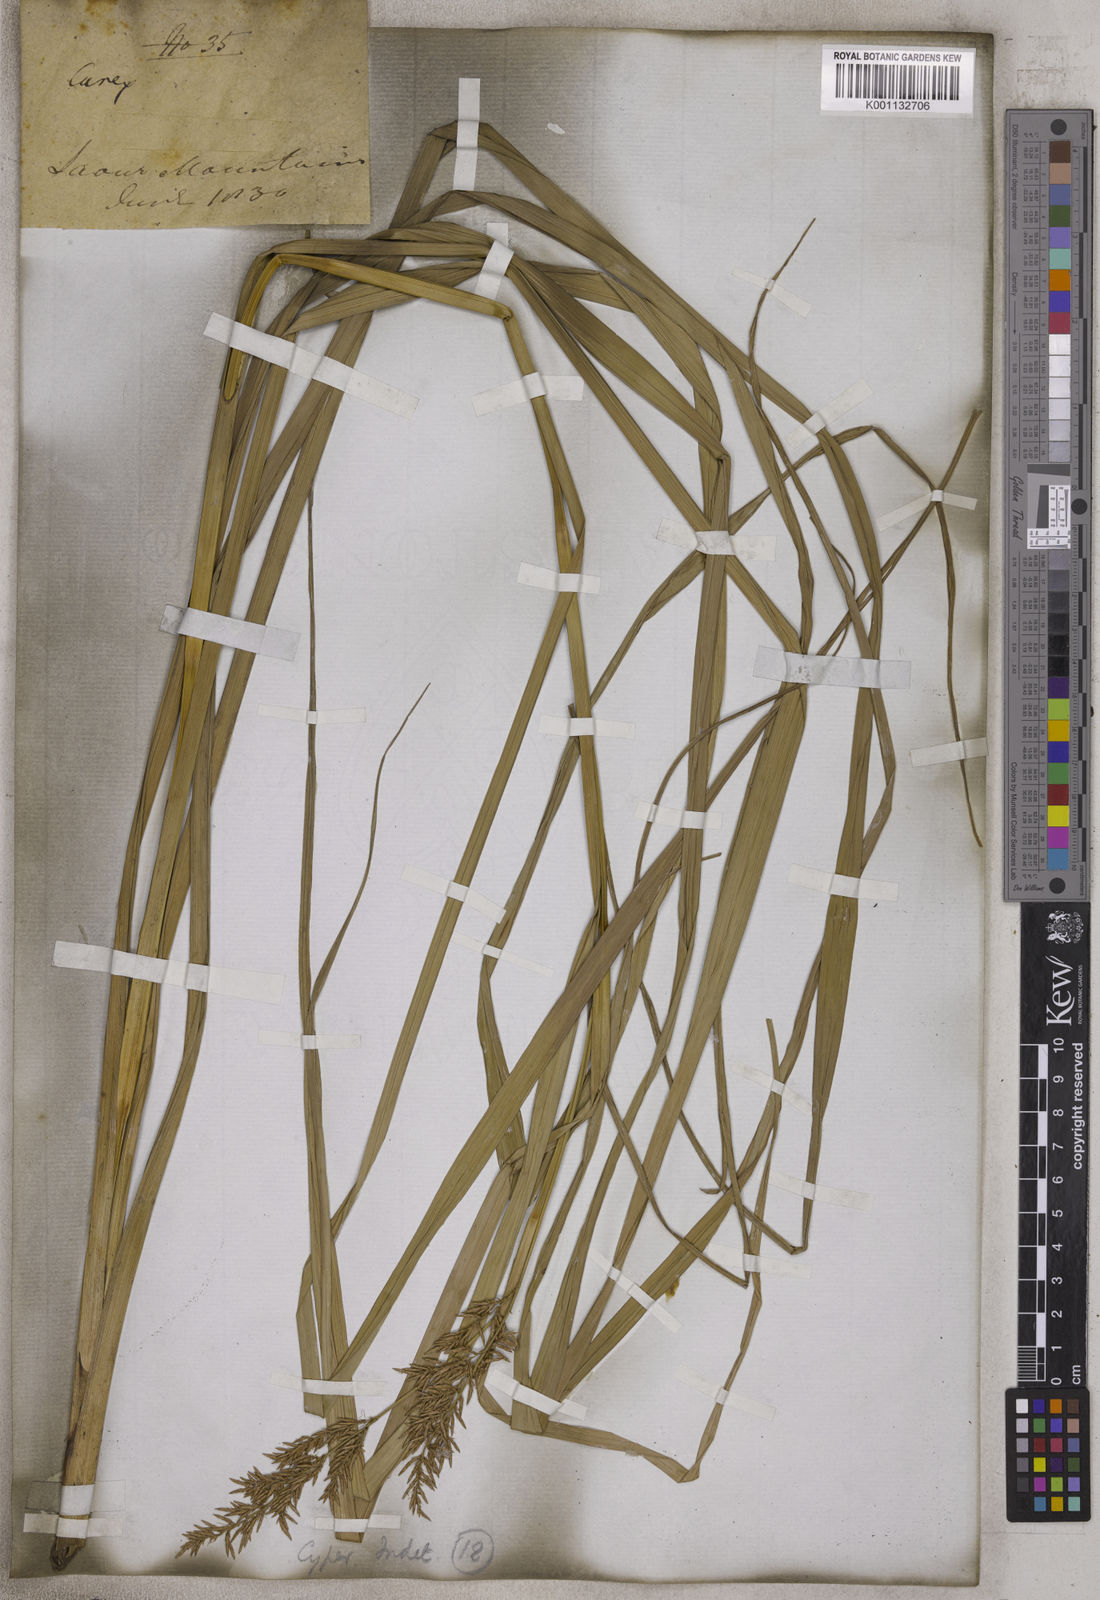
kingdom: Plantae
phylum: Tracheophyta
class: Liliopsida
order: Poales
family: Cyperaceae
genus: Carex
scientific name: Carex
